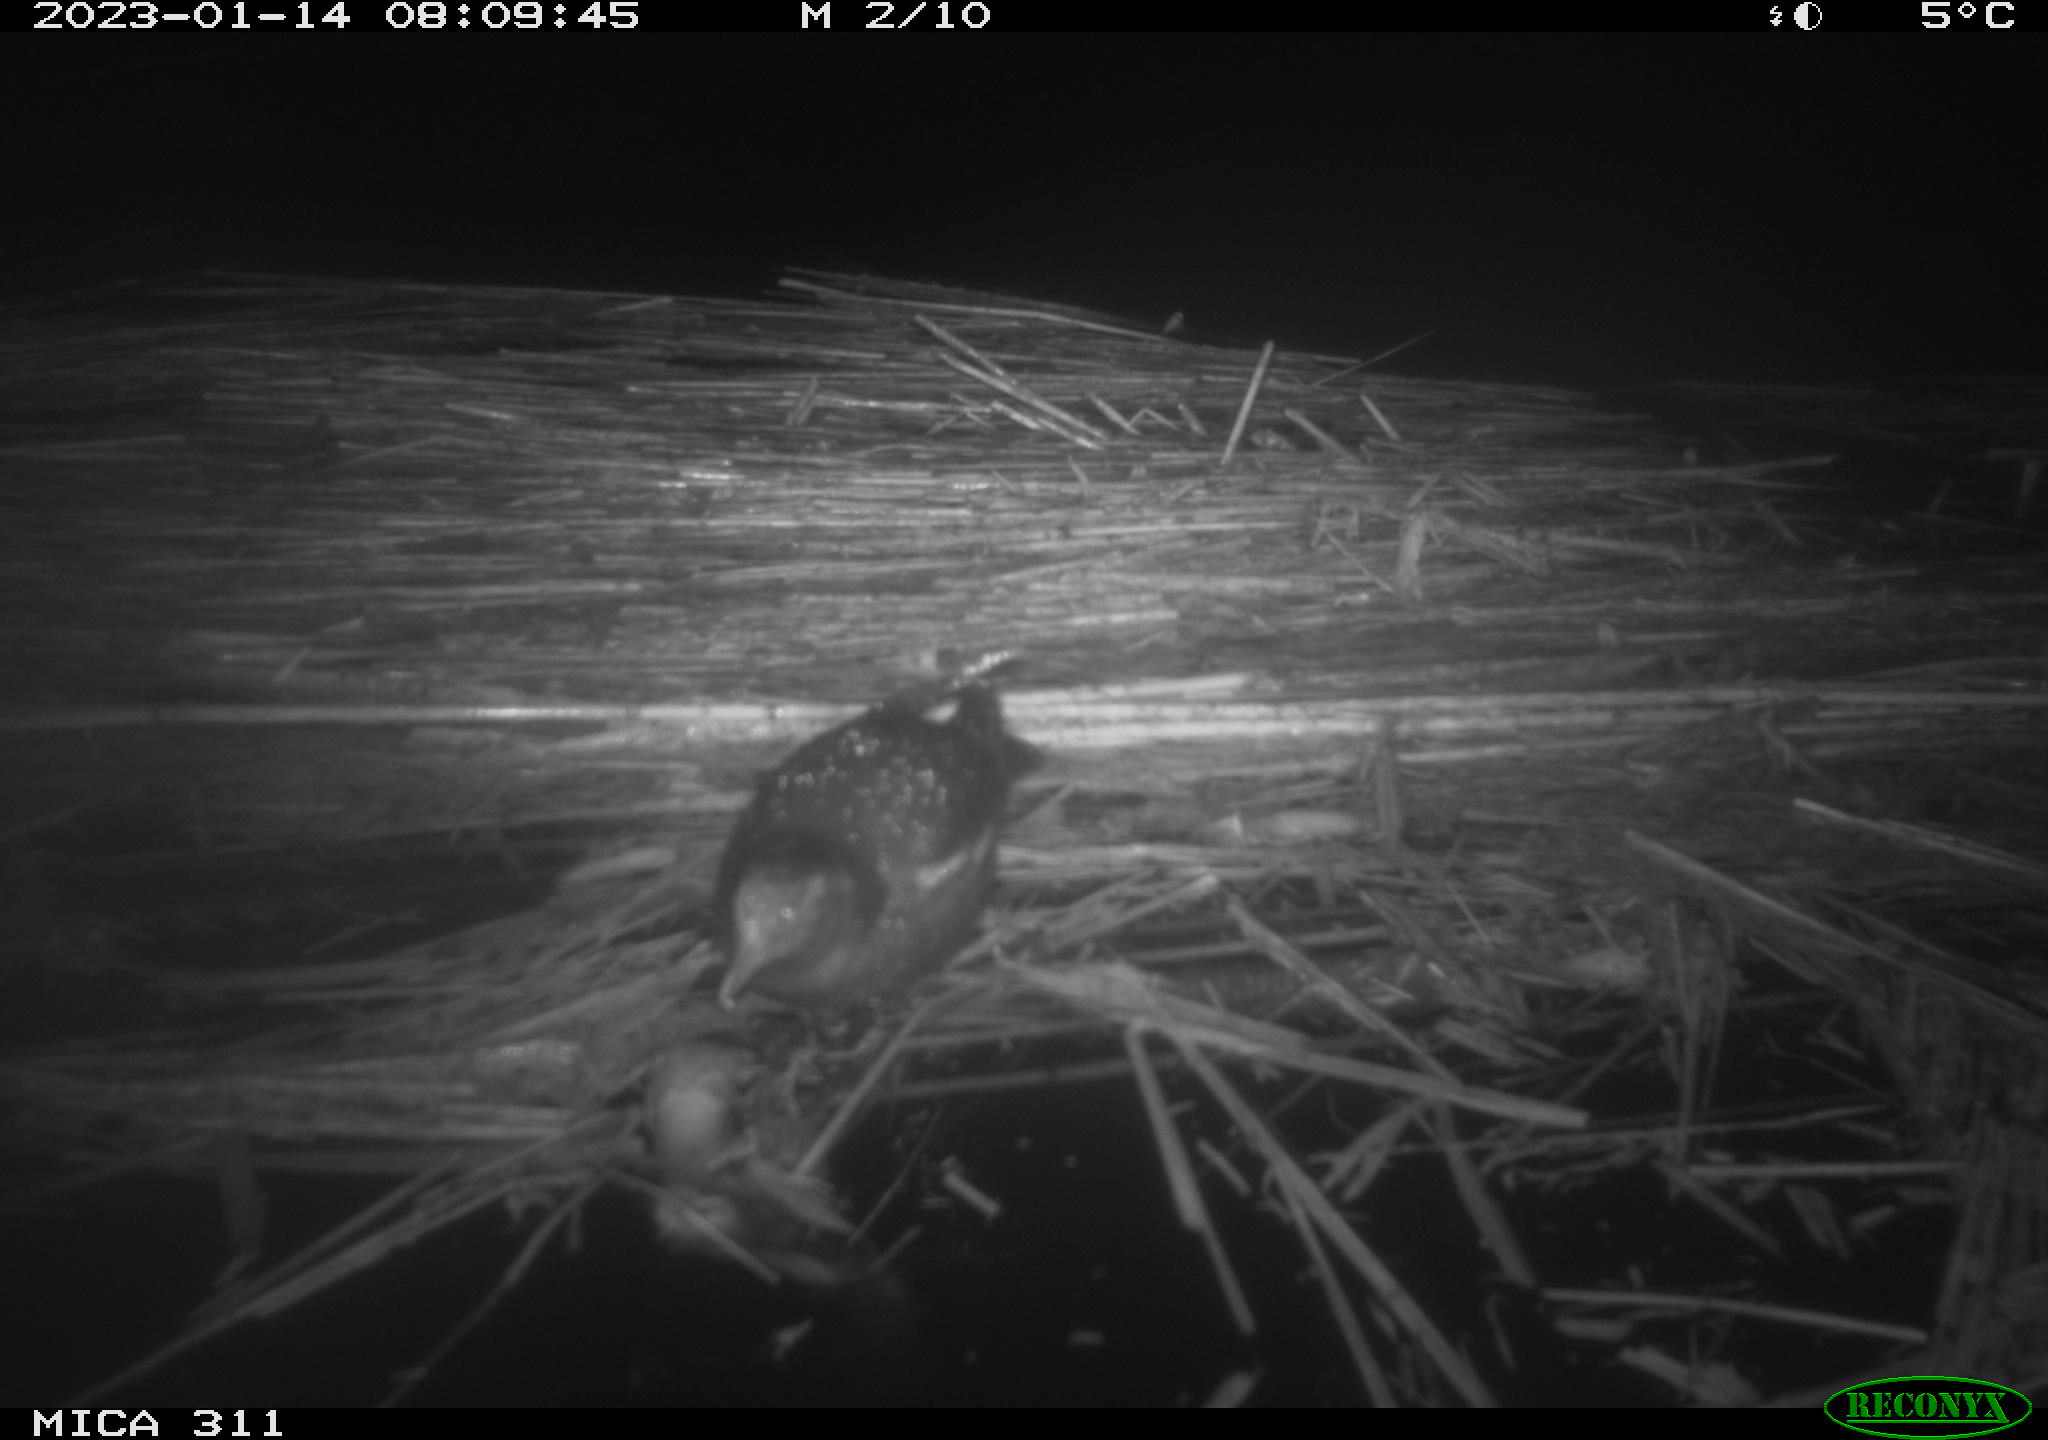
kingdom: Animalia
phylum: Chordata
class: Aves
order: Gruiformes
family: Rallidae
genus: Gallinula
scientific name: Gallinula chloropus
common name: Common moorhen
